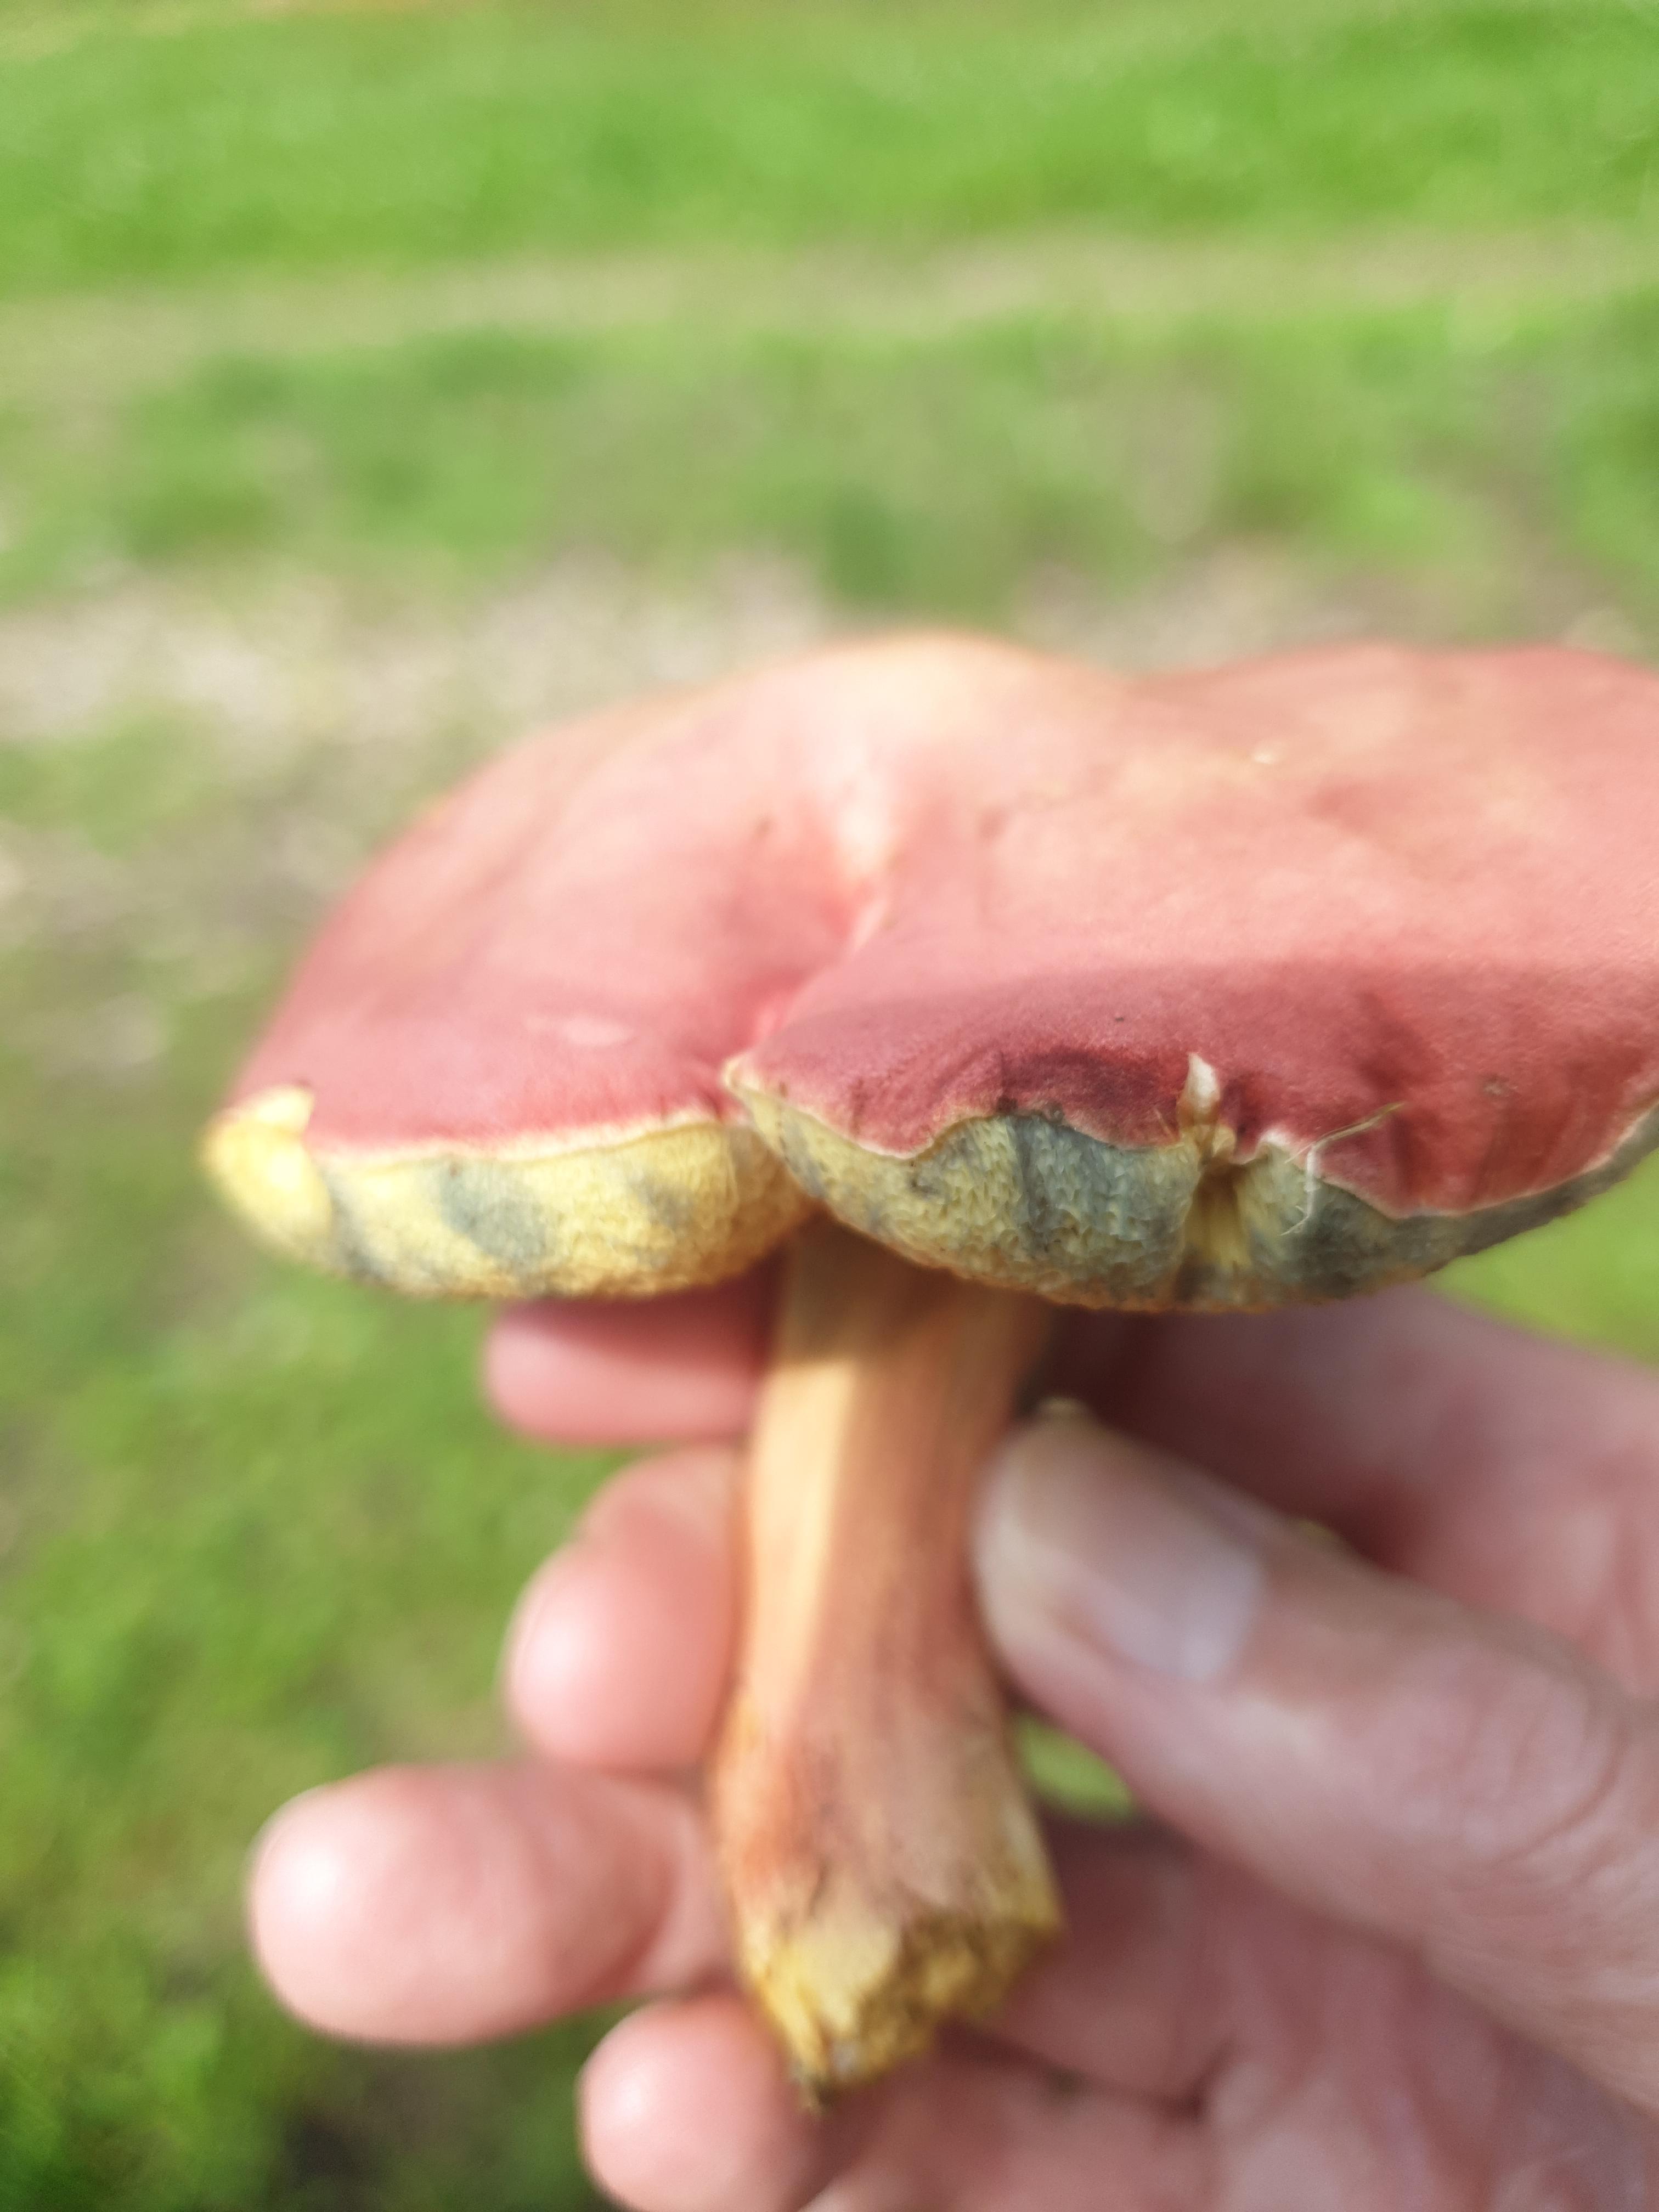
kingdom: Fungi
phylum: Basidiomycota
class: Agaricomycetes
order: Boletales
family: Boletaceae
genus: Hortiboletus
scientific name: Hortiboletus rubellus
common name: blodrød rørhat
